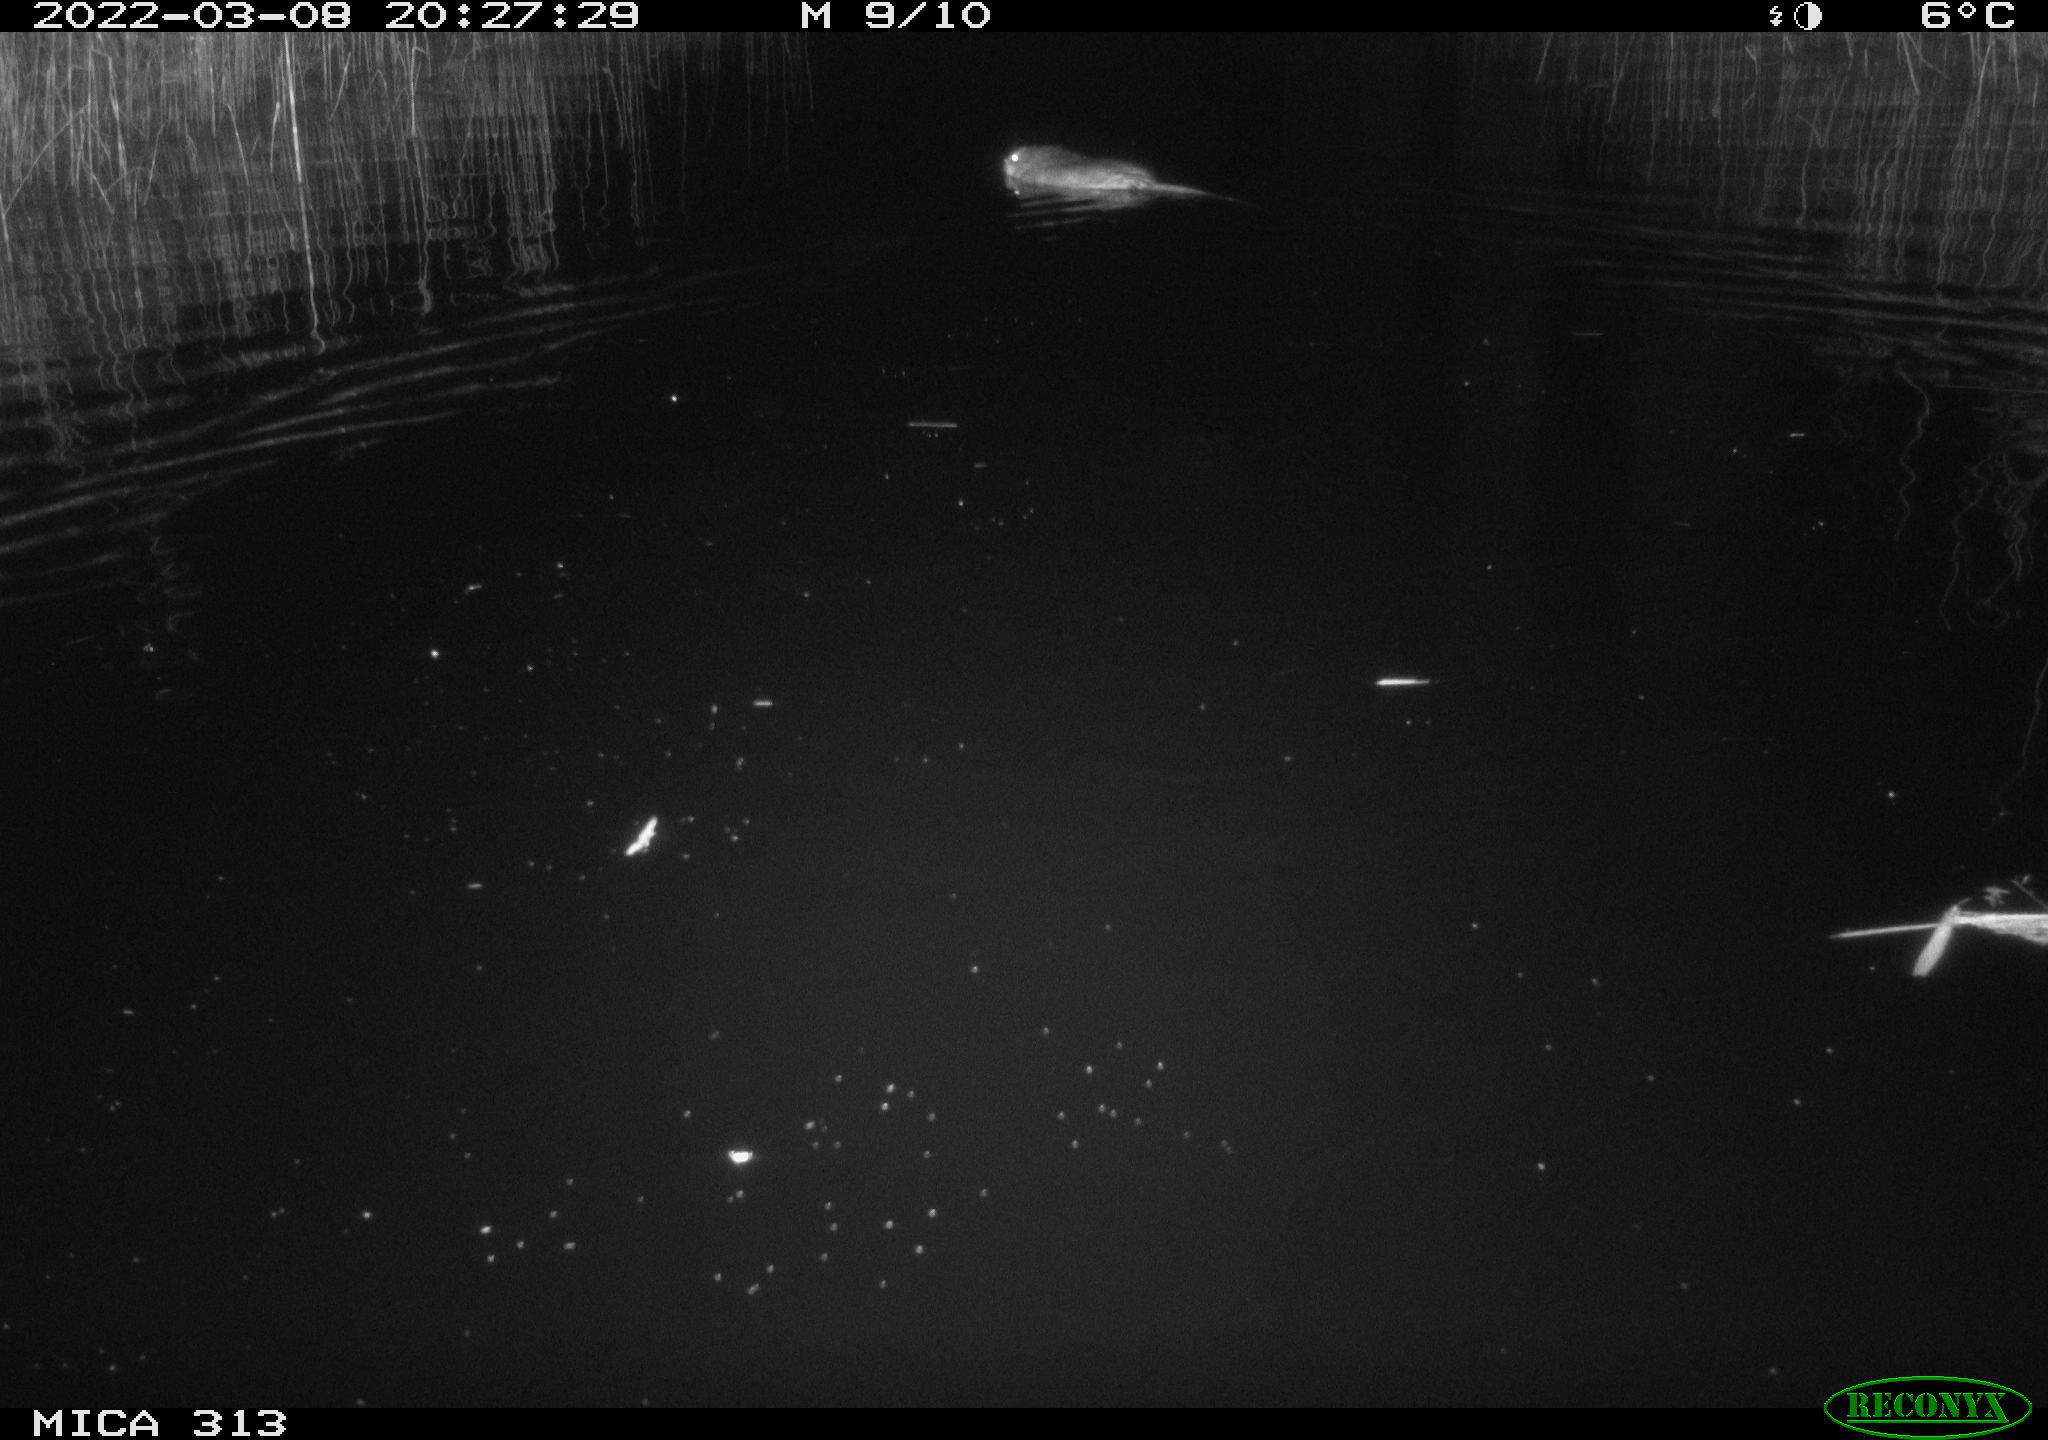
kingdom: Animalia
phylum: Chordata
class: Aves
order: Anseriformes
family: Anatidae
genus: Anas
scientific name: Anas platyrhynchos
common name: Mallard
